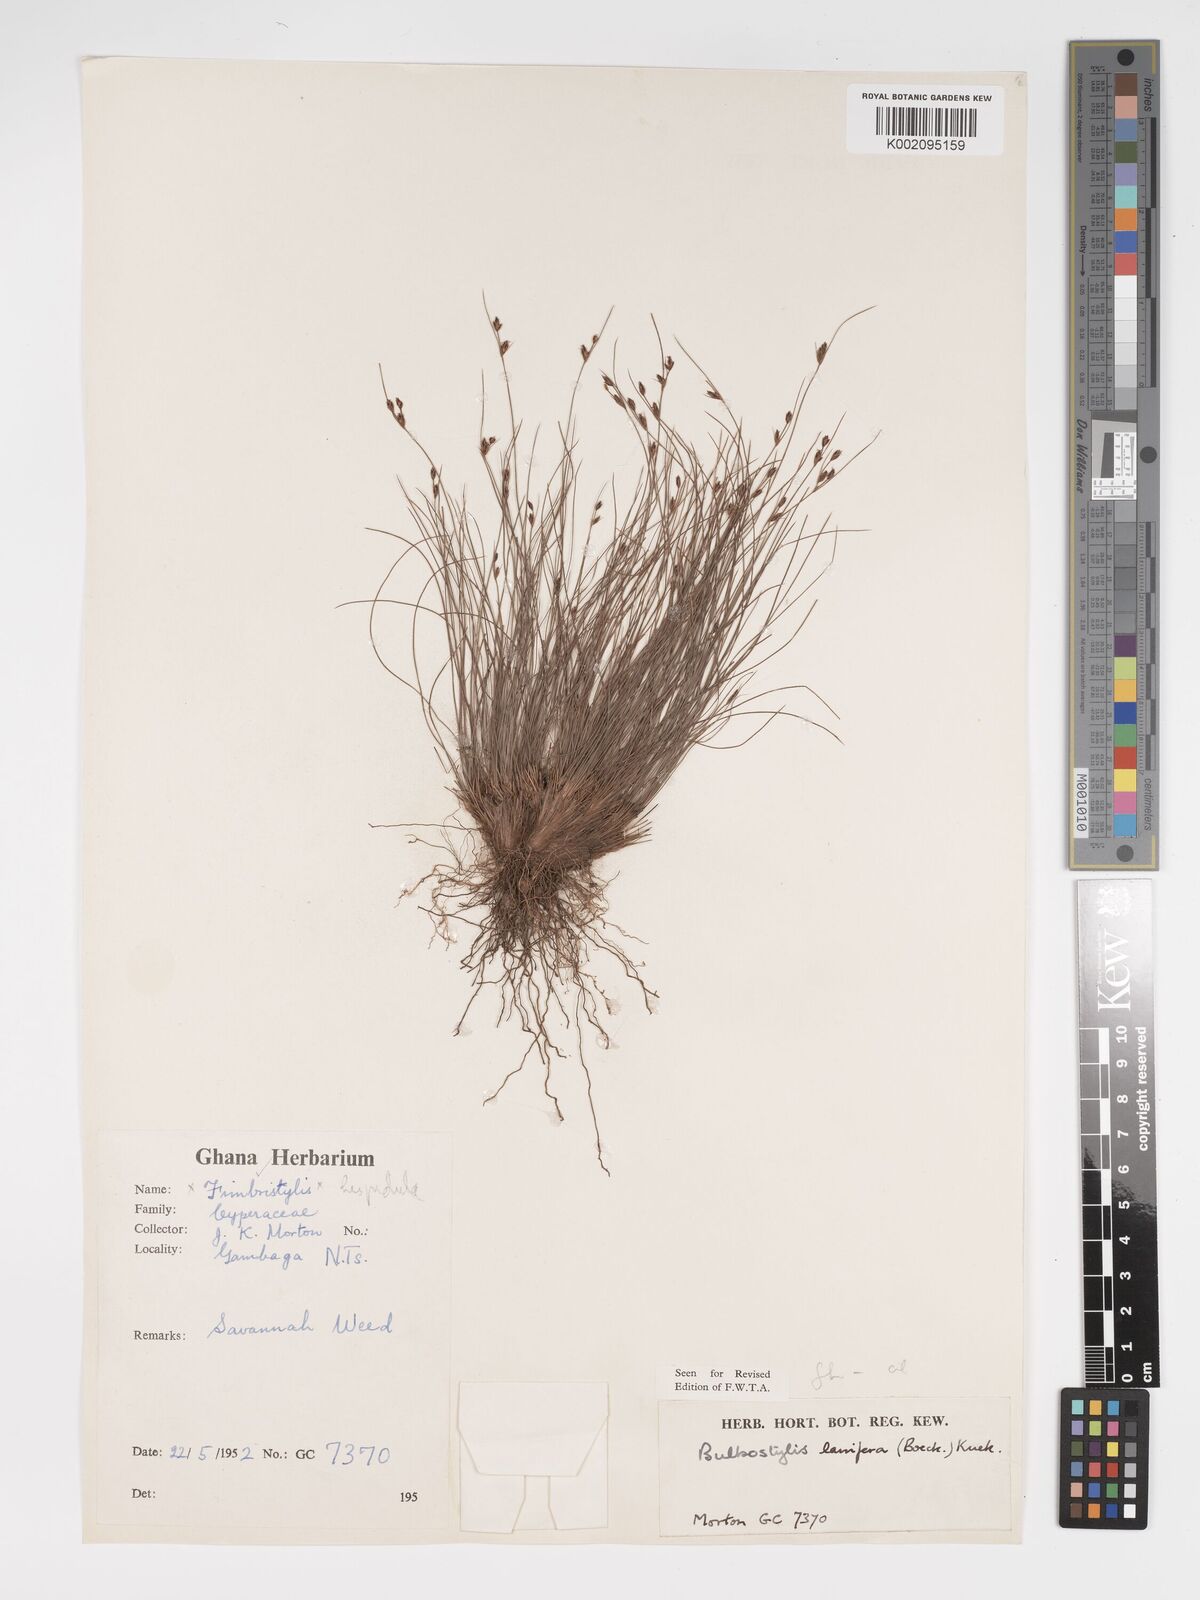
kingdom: Plantae
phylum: Tracheophyta
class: Liliopsida
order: Poales
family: Cyperaceae
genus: Bulbostylis
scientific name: Bulbostylis lanifera
